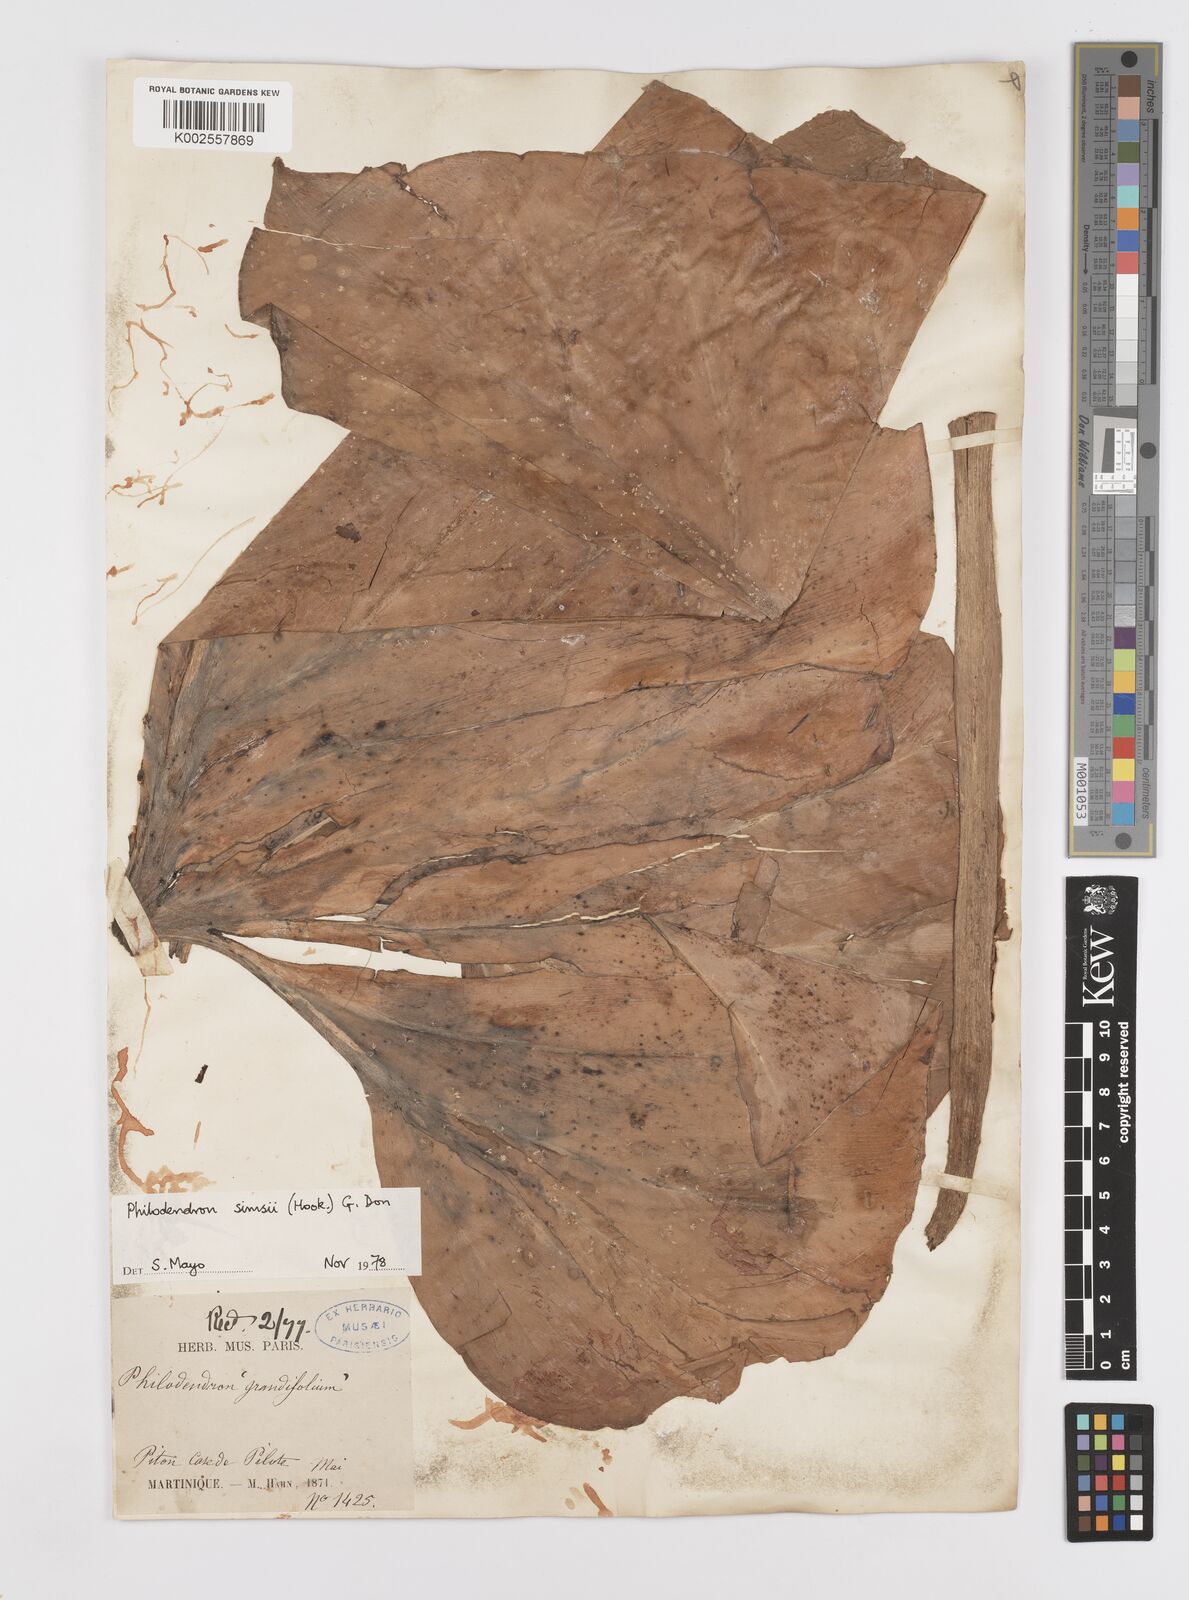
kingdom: Plantae
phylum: Tracheophyta
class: Liliopsida
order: Alismatales
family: Araceae
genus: Philodendron
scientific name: Philodendron
